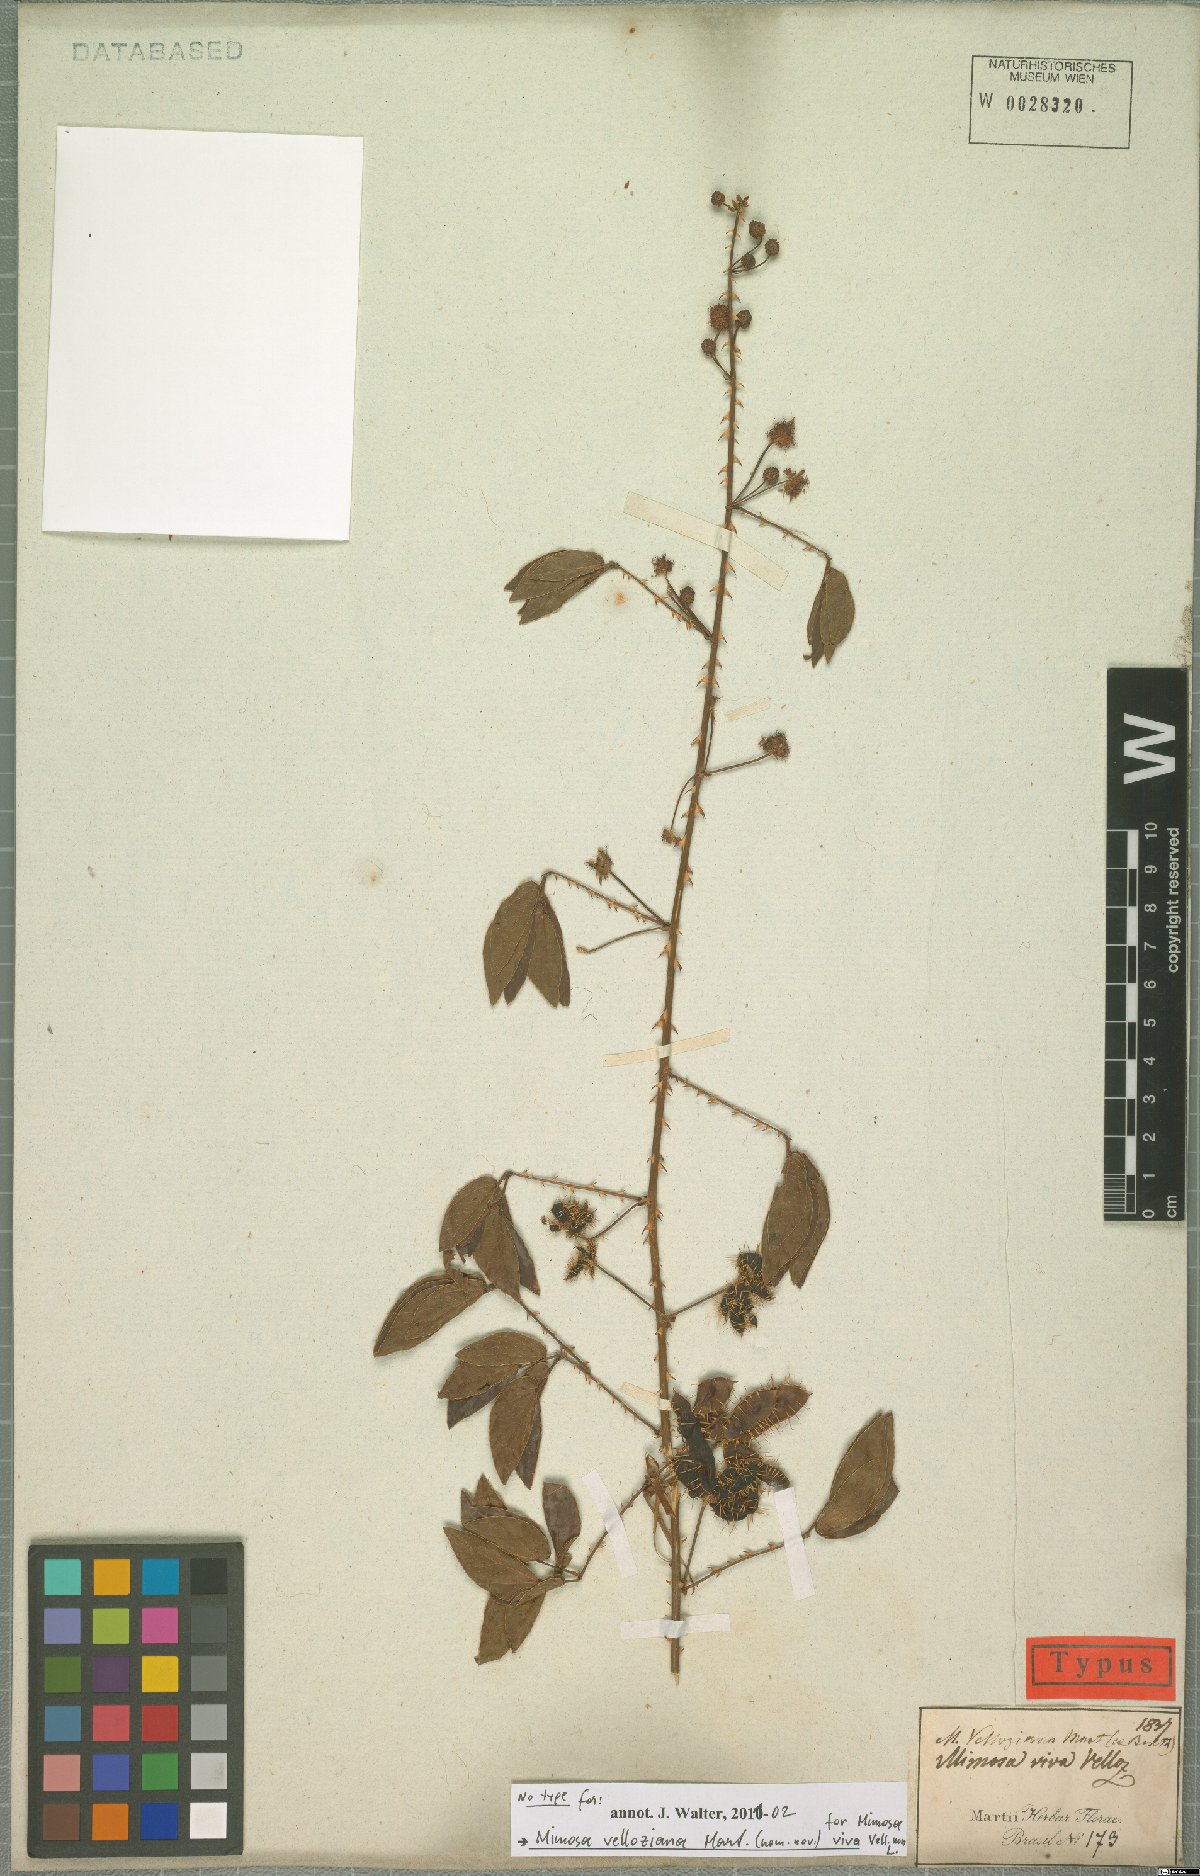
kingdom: Plantae
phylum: Tracheophyta
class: Magnoliopsida
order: Fabales
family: Fabaceae
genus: Mimosa
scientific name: Mimosa velloziana
